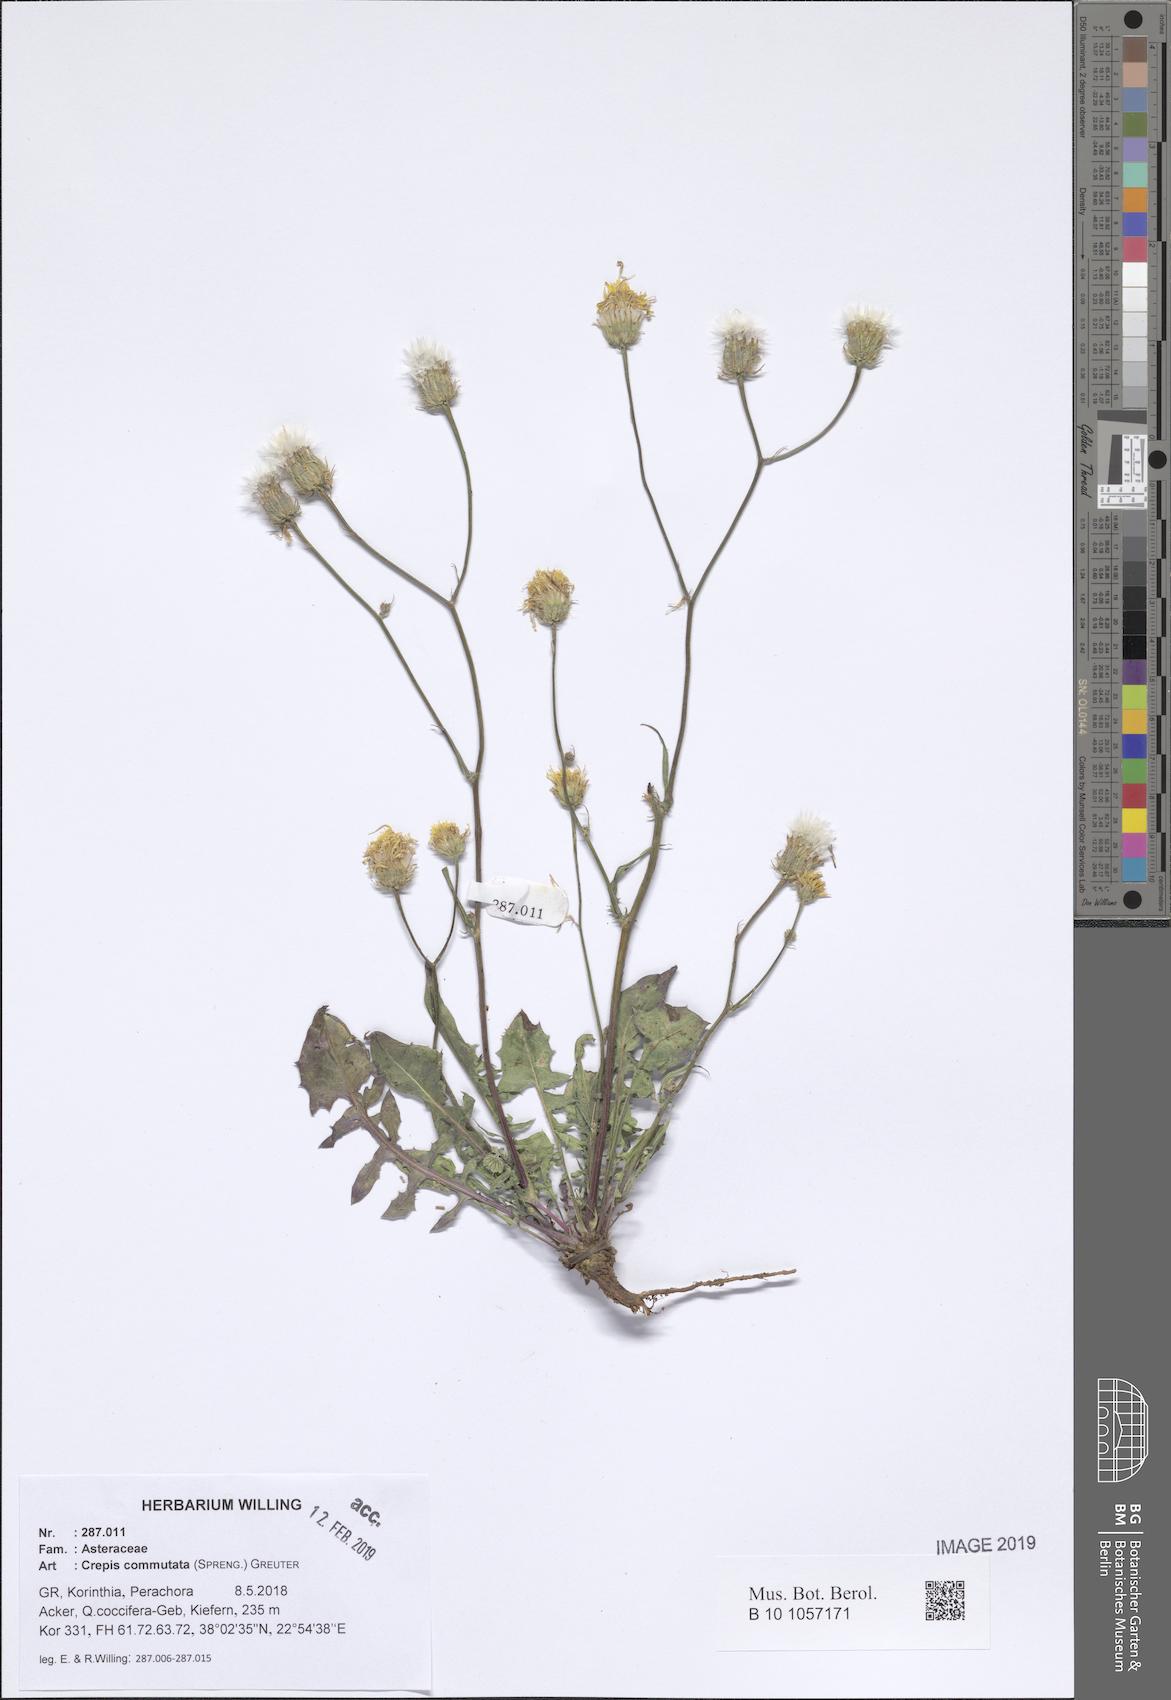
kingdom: Plantae
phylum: Tracheophyta
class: Magnoliopsida
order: Asterales
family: Asteraceae
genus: Crepis
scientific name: Crepis commutata
